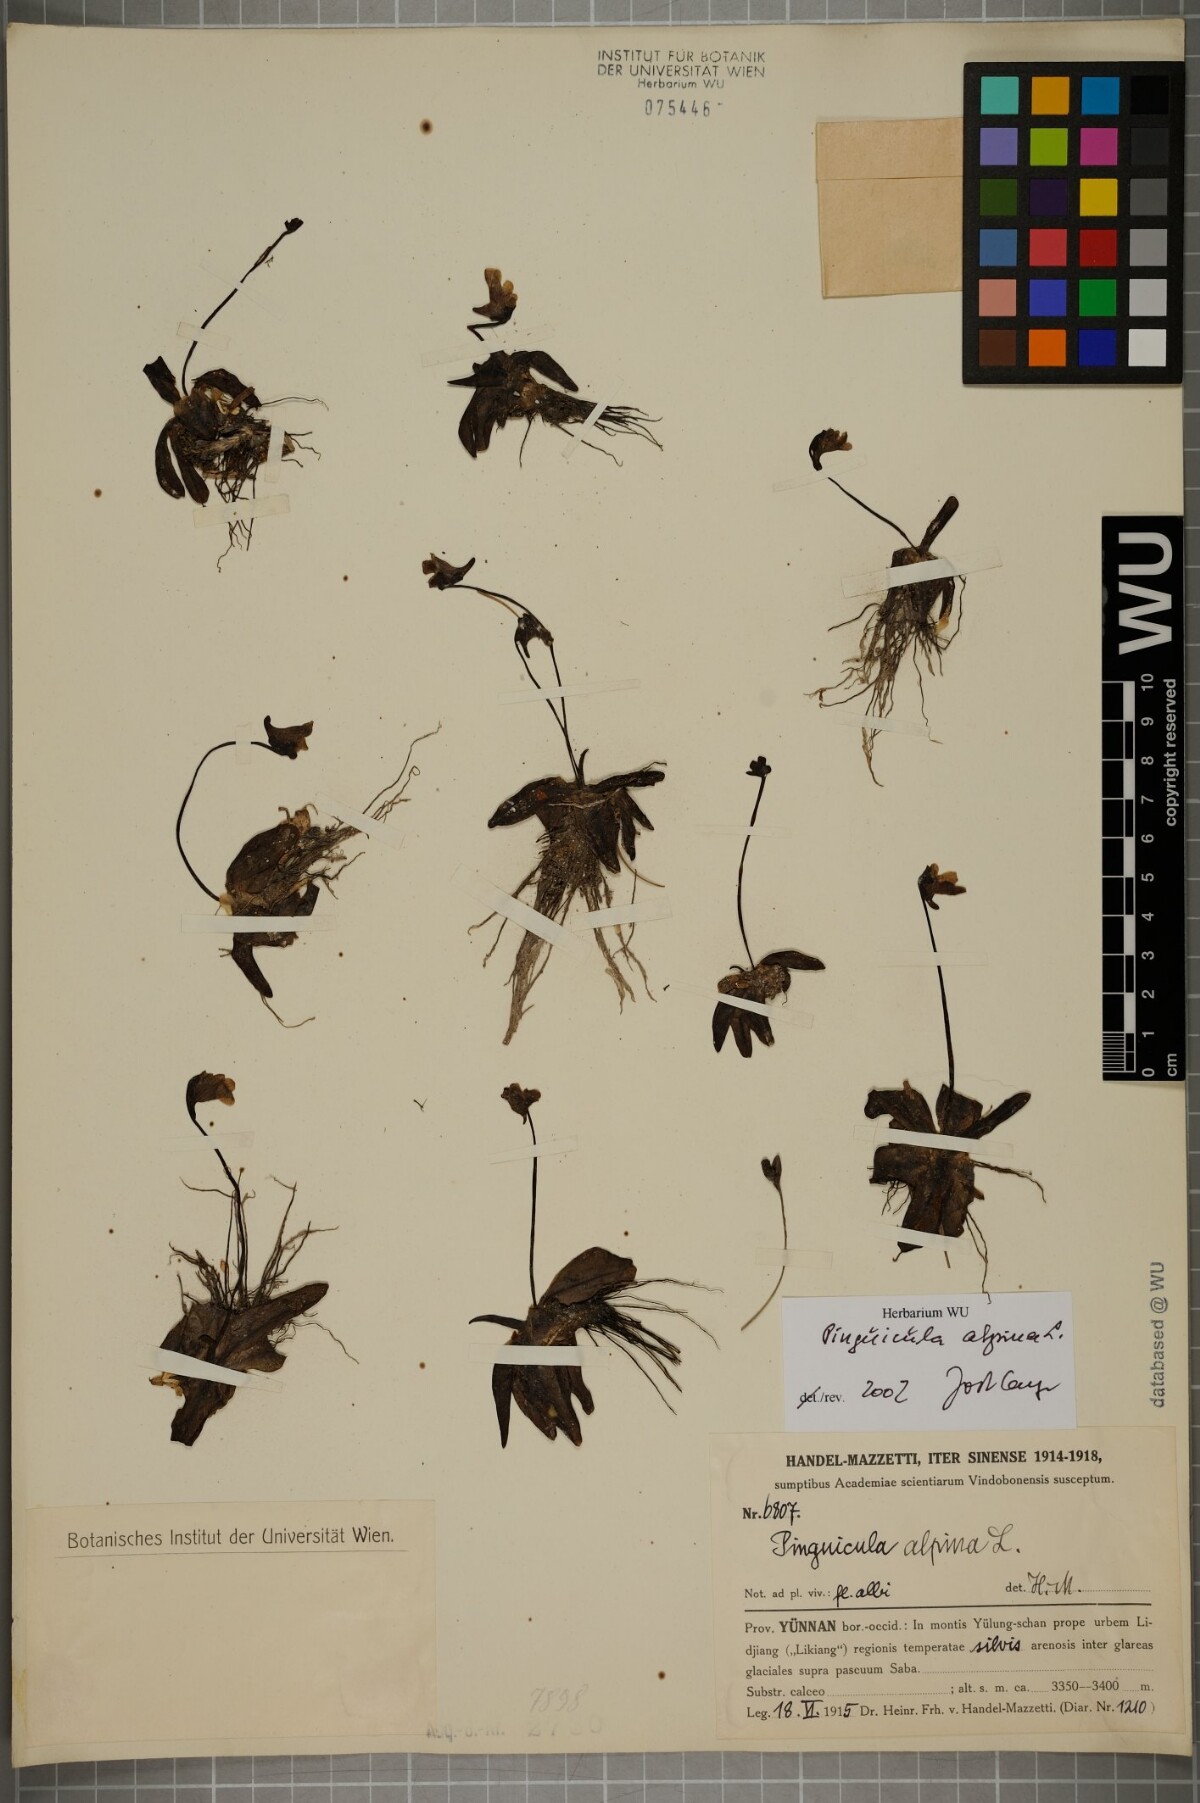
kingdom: Plantae
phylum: Tracheophyta
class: Magnoliopsida
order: Lamiales
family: Lentibulariaceae
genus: Pinguicula
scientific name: Pinguicula alpina
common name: Alpine butterwort
